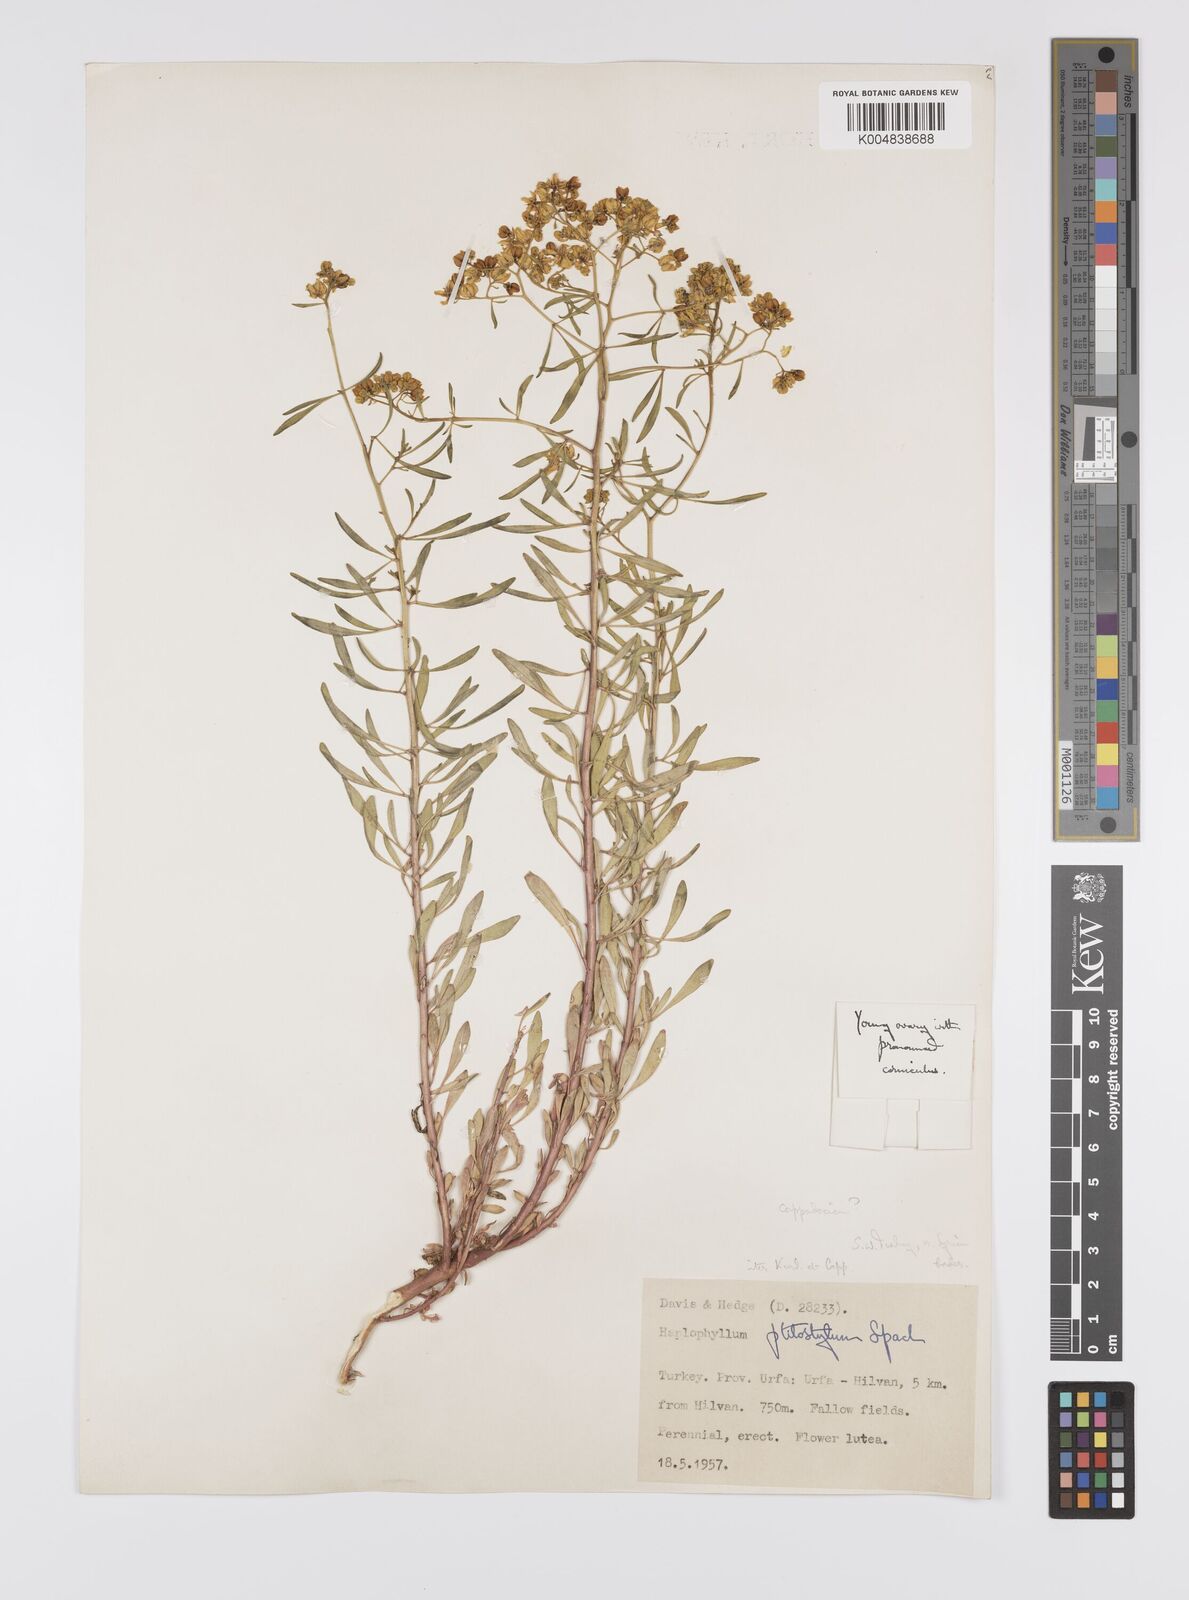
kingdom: Plantae
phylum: Tracheophyta
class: Magnoliopsida
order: Sapindales
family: Rutaceae
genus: Haplophyllum
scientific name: Haplophyllum ptilostylum
